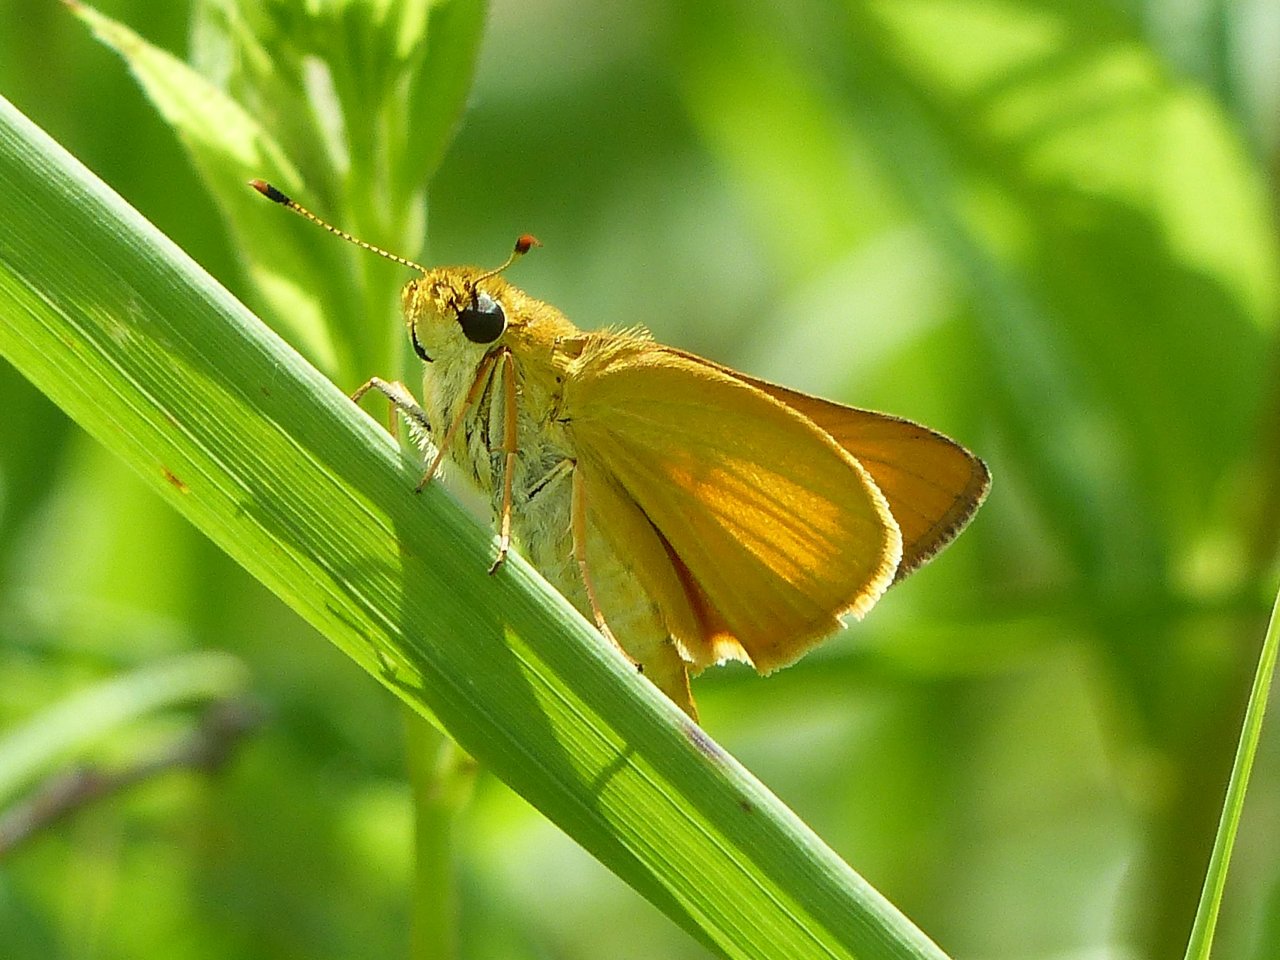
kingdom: Animalia
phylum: Arthropoda
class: Insecta
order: Lepidoptera
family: Hesperiidae
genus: Atrytone
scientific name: Atrytone delaware
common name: Delaware Skipper
